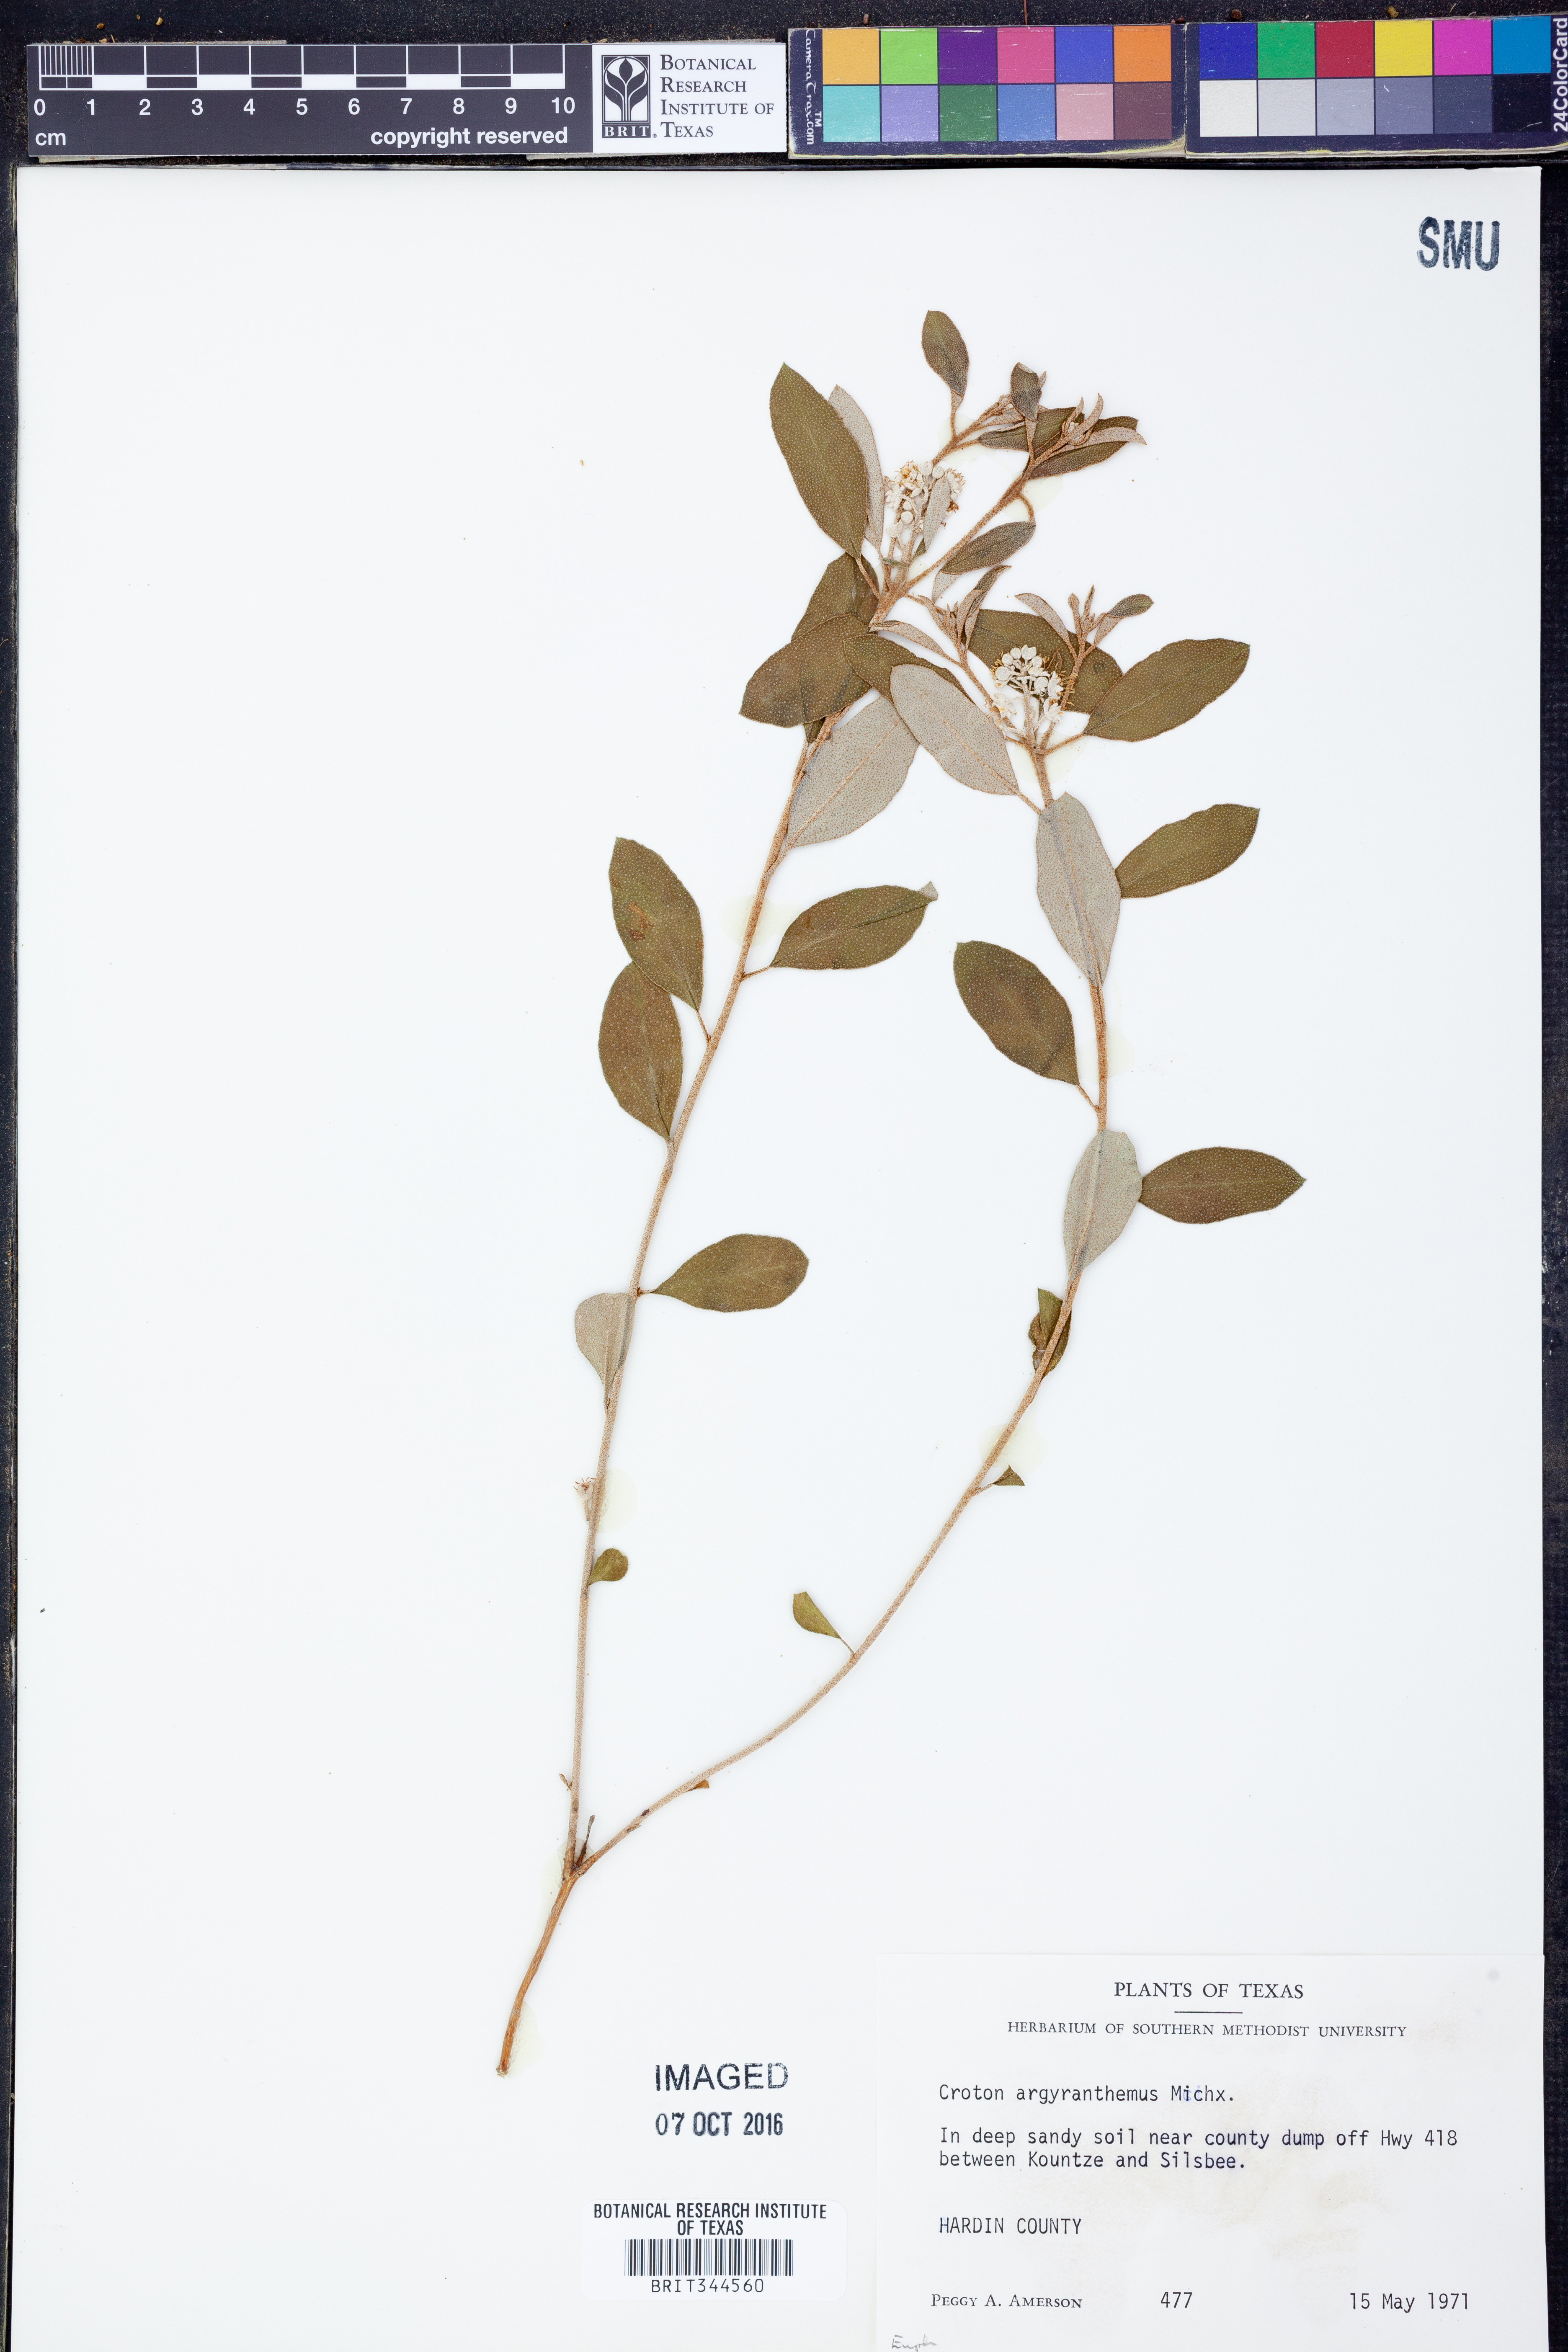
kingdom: Plantae
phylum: Tracheophyta
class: Magnoliopsida
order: Malpighiales
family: Euphorbiaceae
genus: Croton
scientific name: Croton argyranthemus
